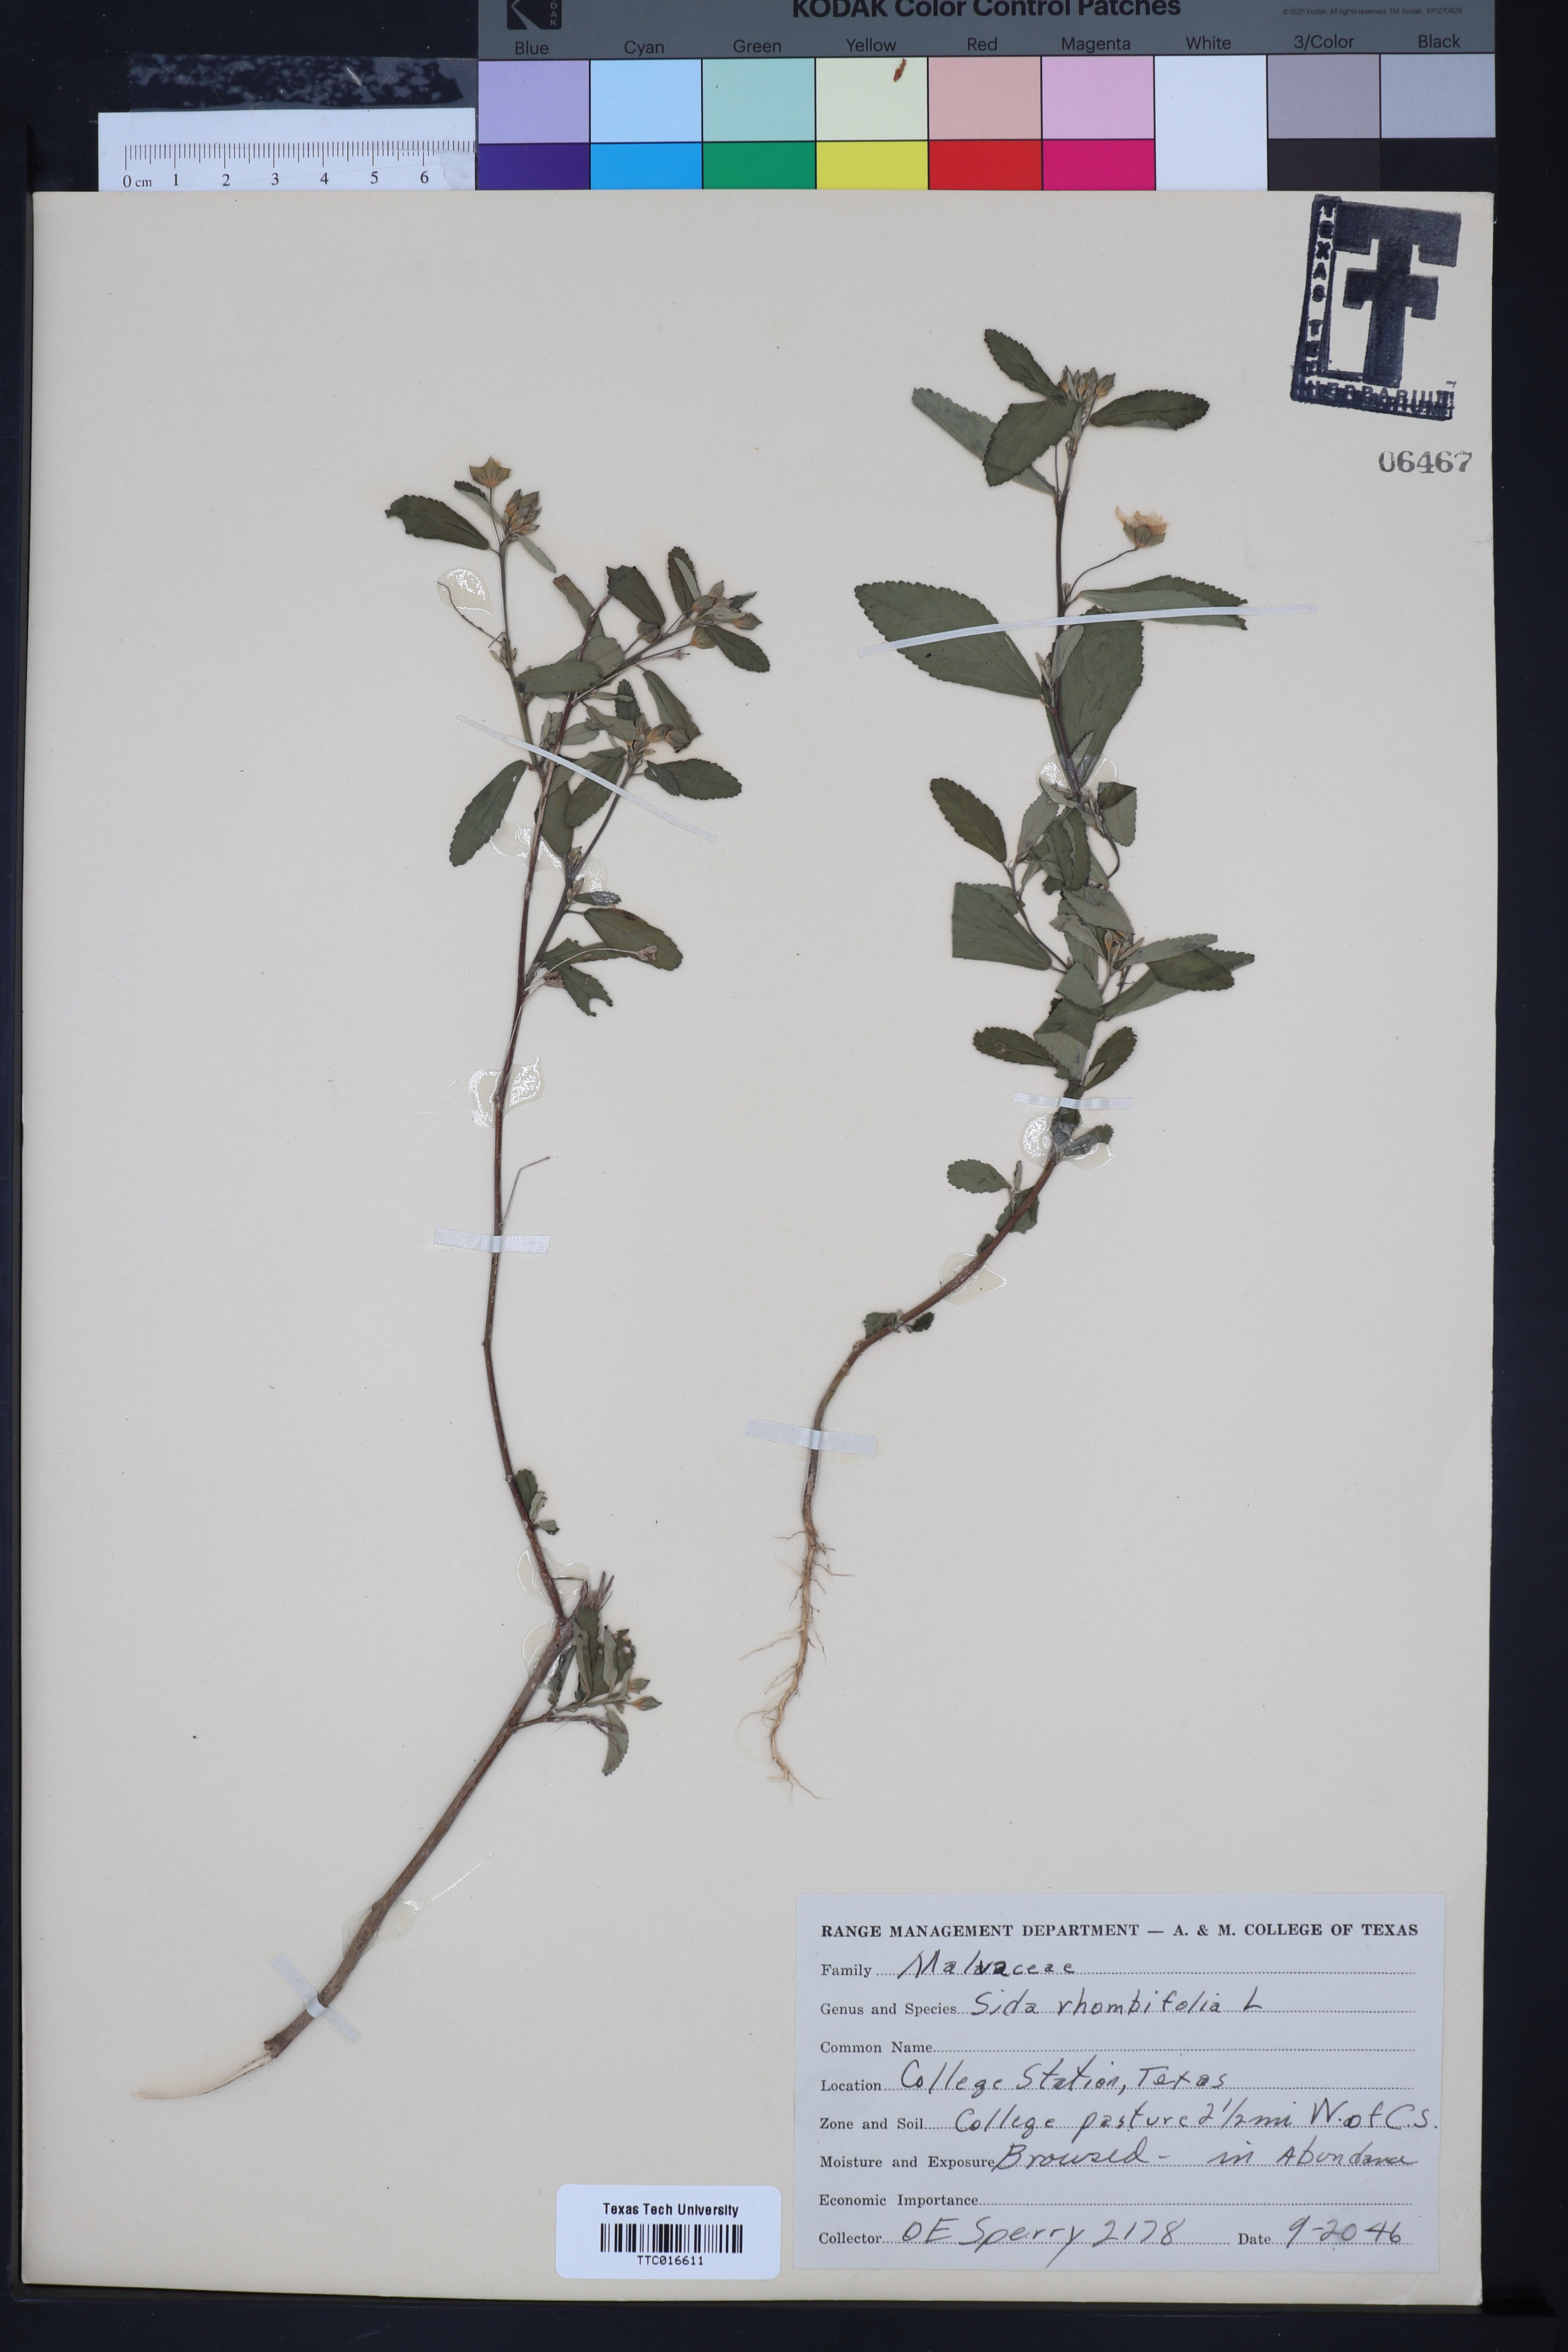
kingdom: Plantae
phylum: Tracheophyta
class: Magnoliopsida
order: Malvales
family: Malvaceae
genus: Sida
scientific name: Sida rhombifolia
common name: Queensland-hemp
